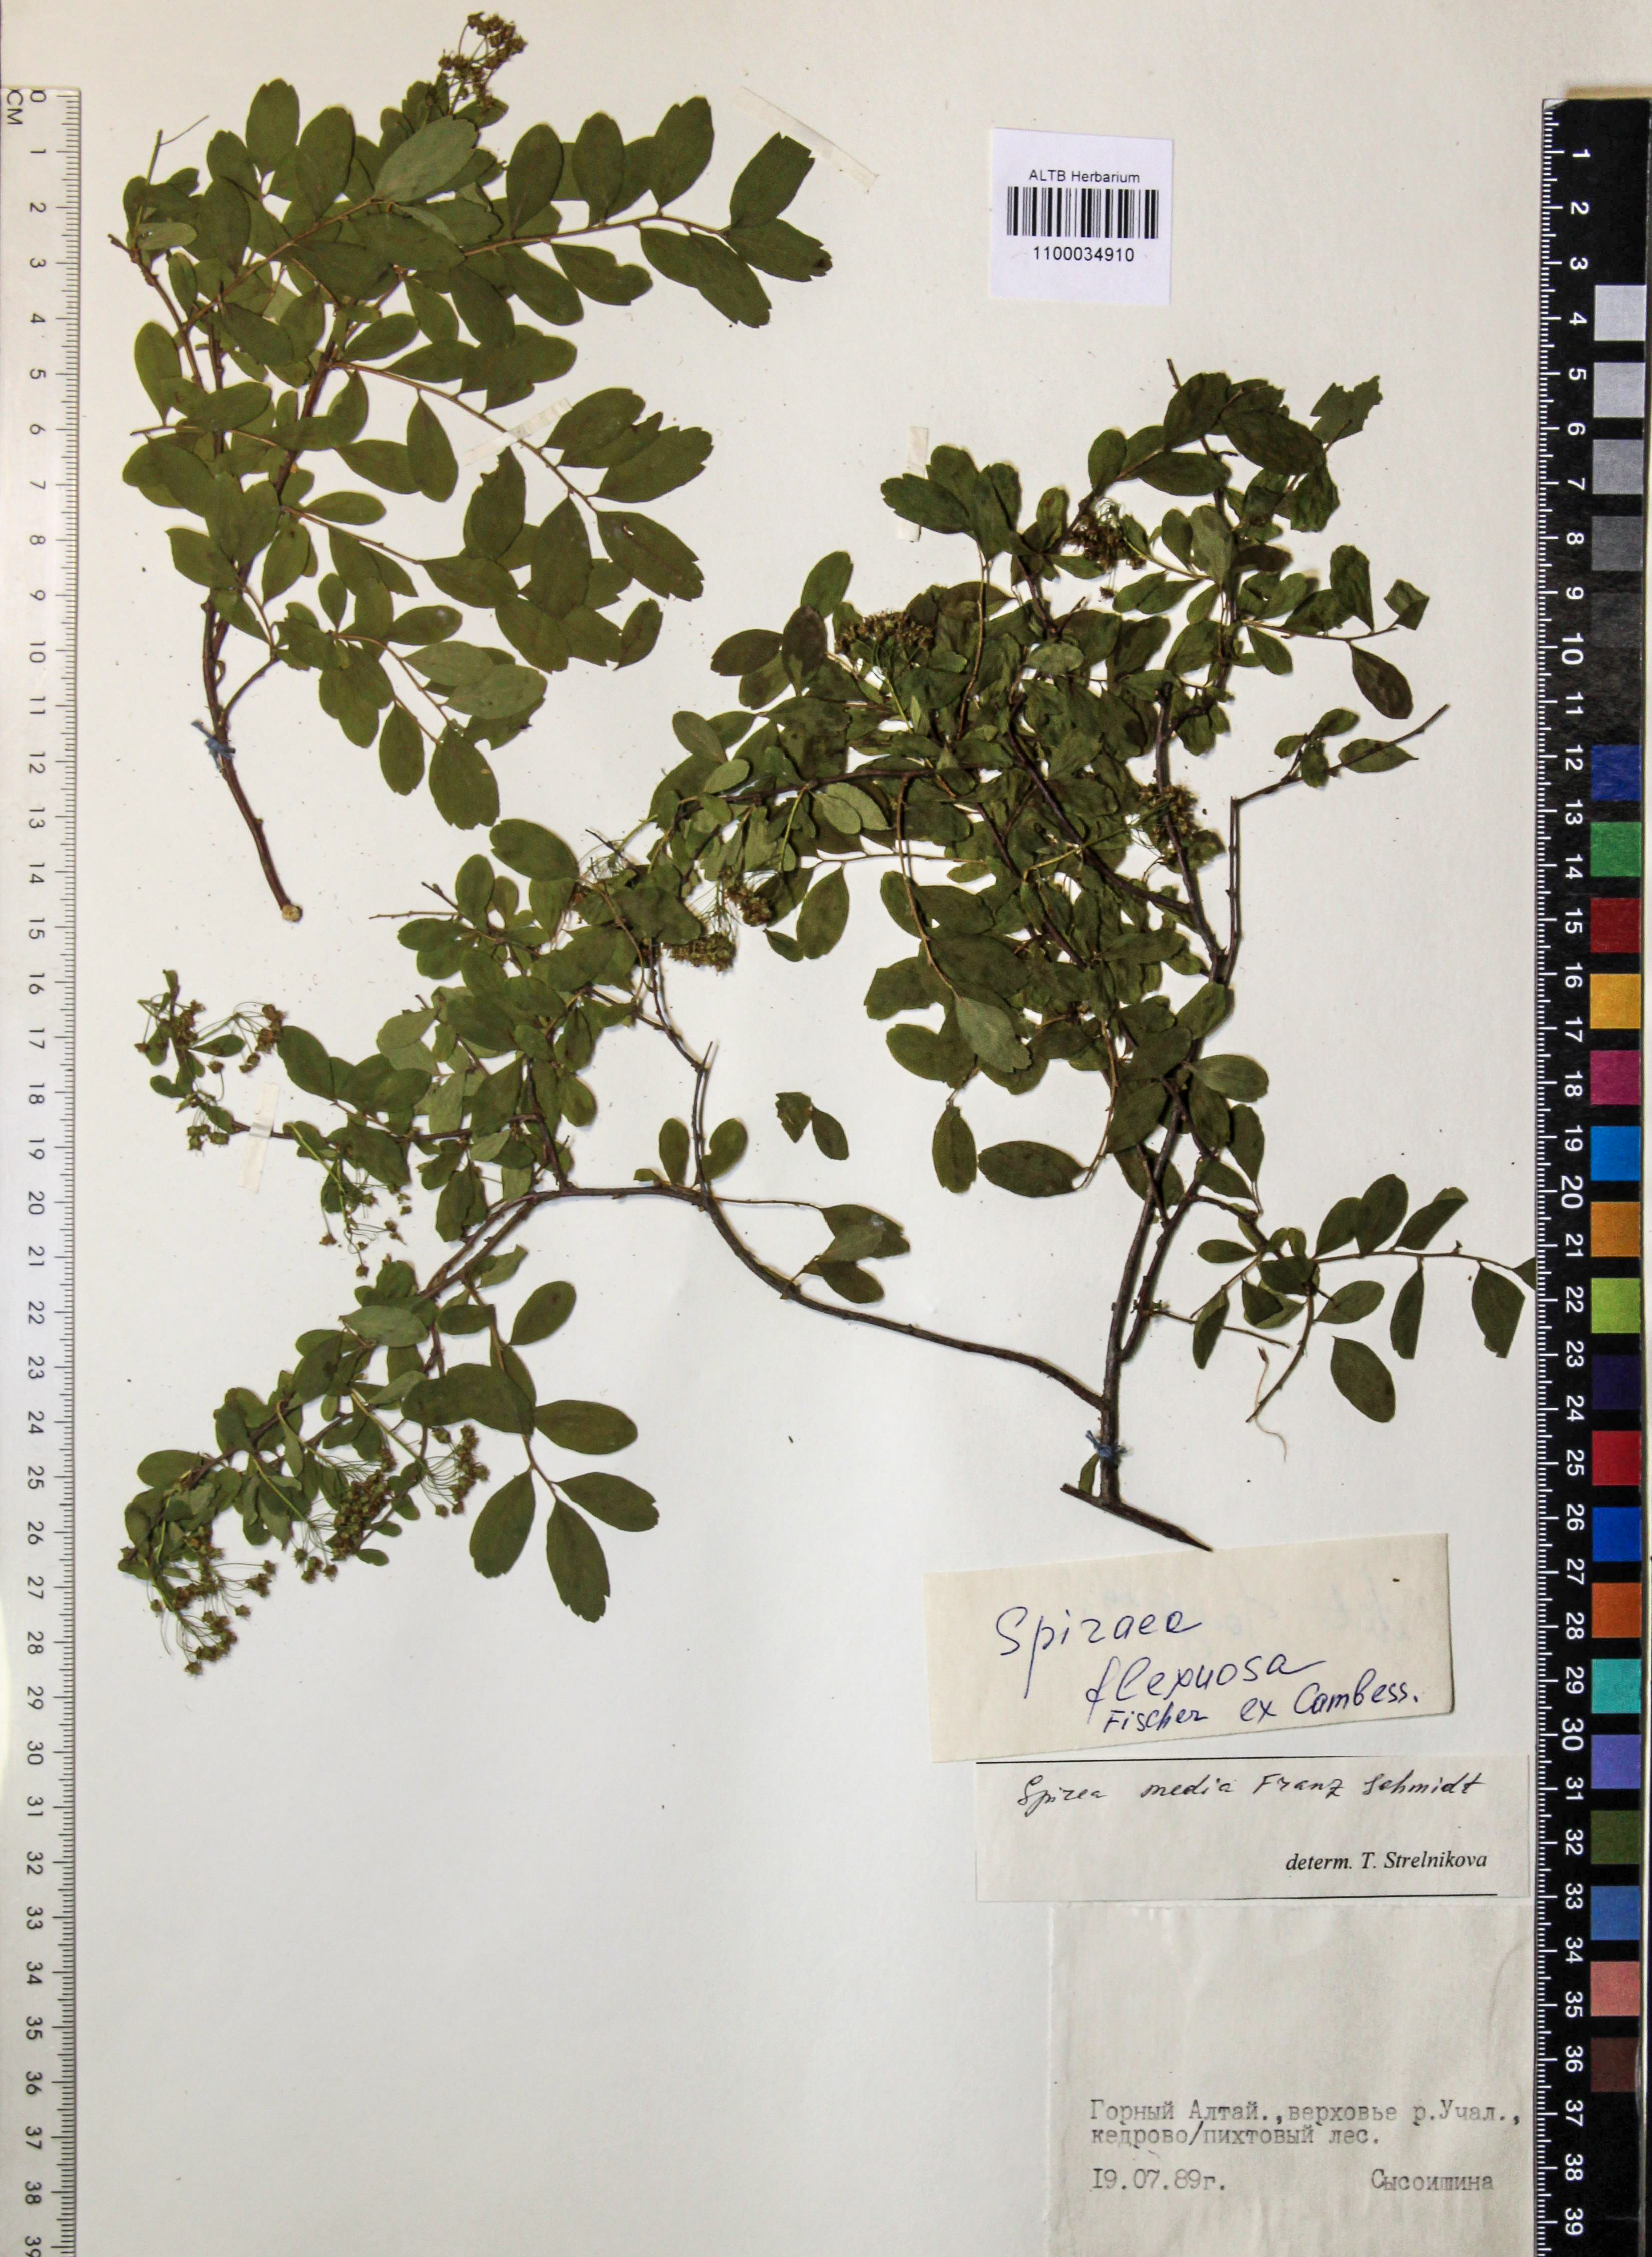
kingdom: Plantae
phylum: Tracheophyta
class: Magnoliopsida
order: Rosales
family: Rosaceae
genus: Spiraea
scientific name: Spiraea media
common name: Russian spiraea
